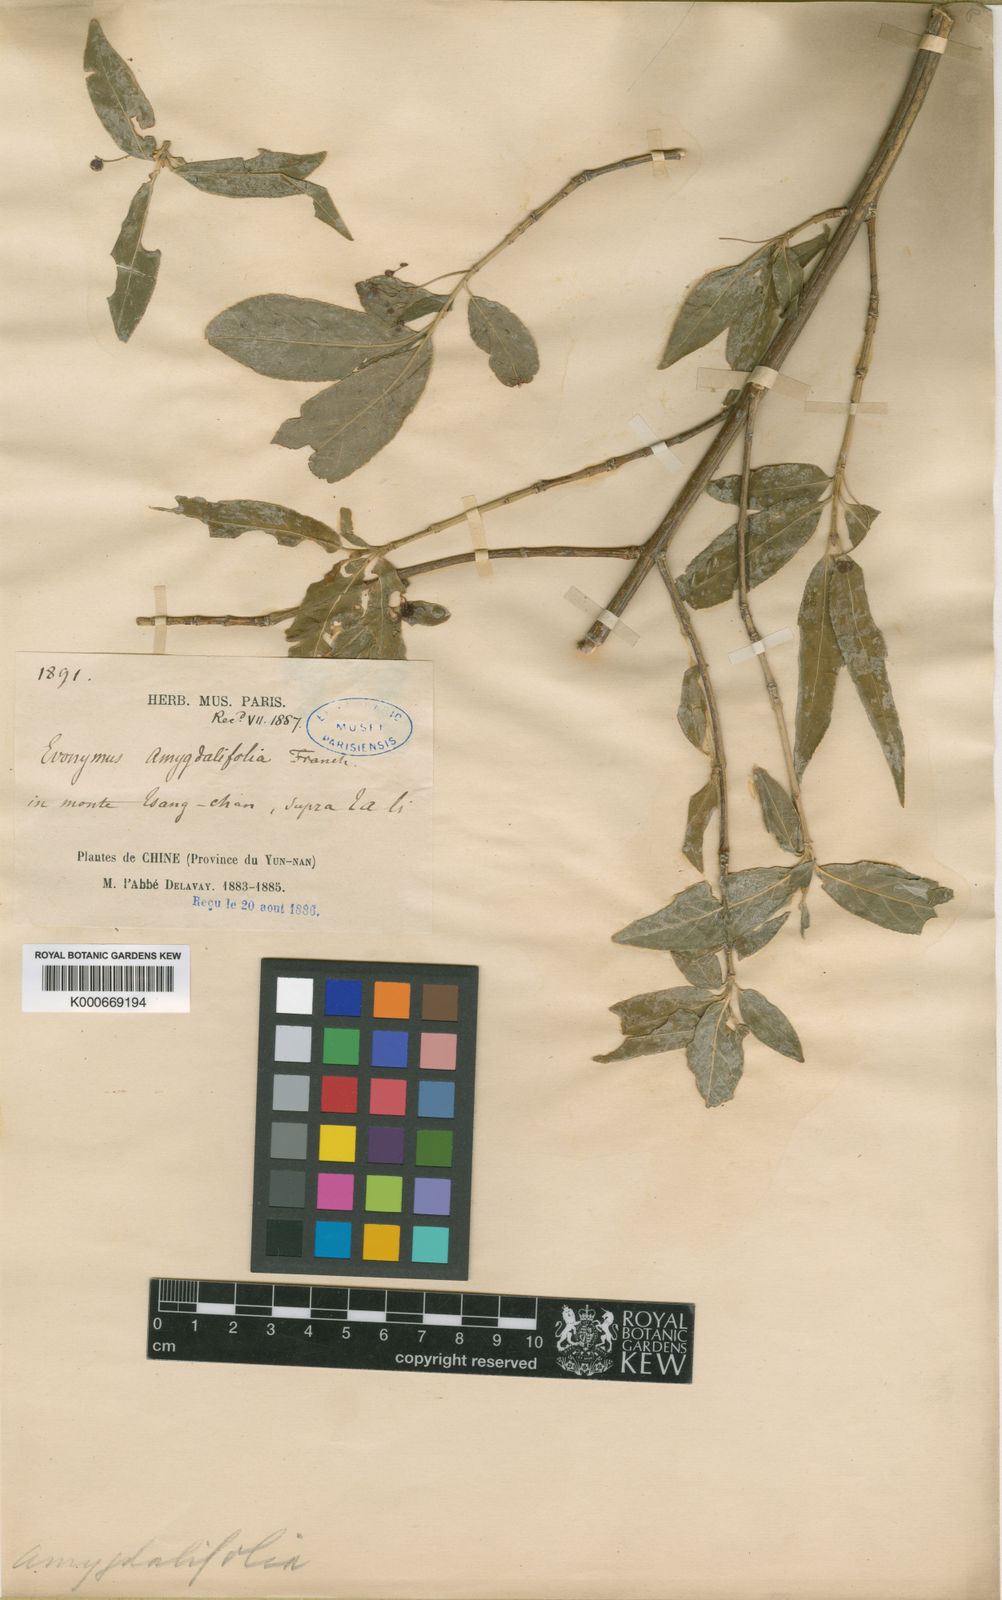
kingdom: Plantae
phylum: Tracheophyta
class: Magnoliopsida
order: Celastrales
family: Celastraceae
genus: Euonymus
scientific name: Euonymus frigidus
